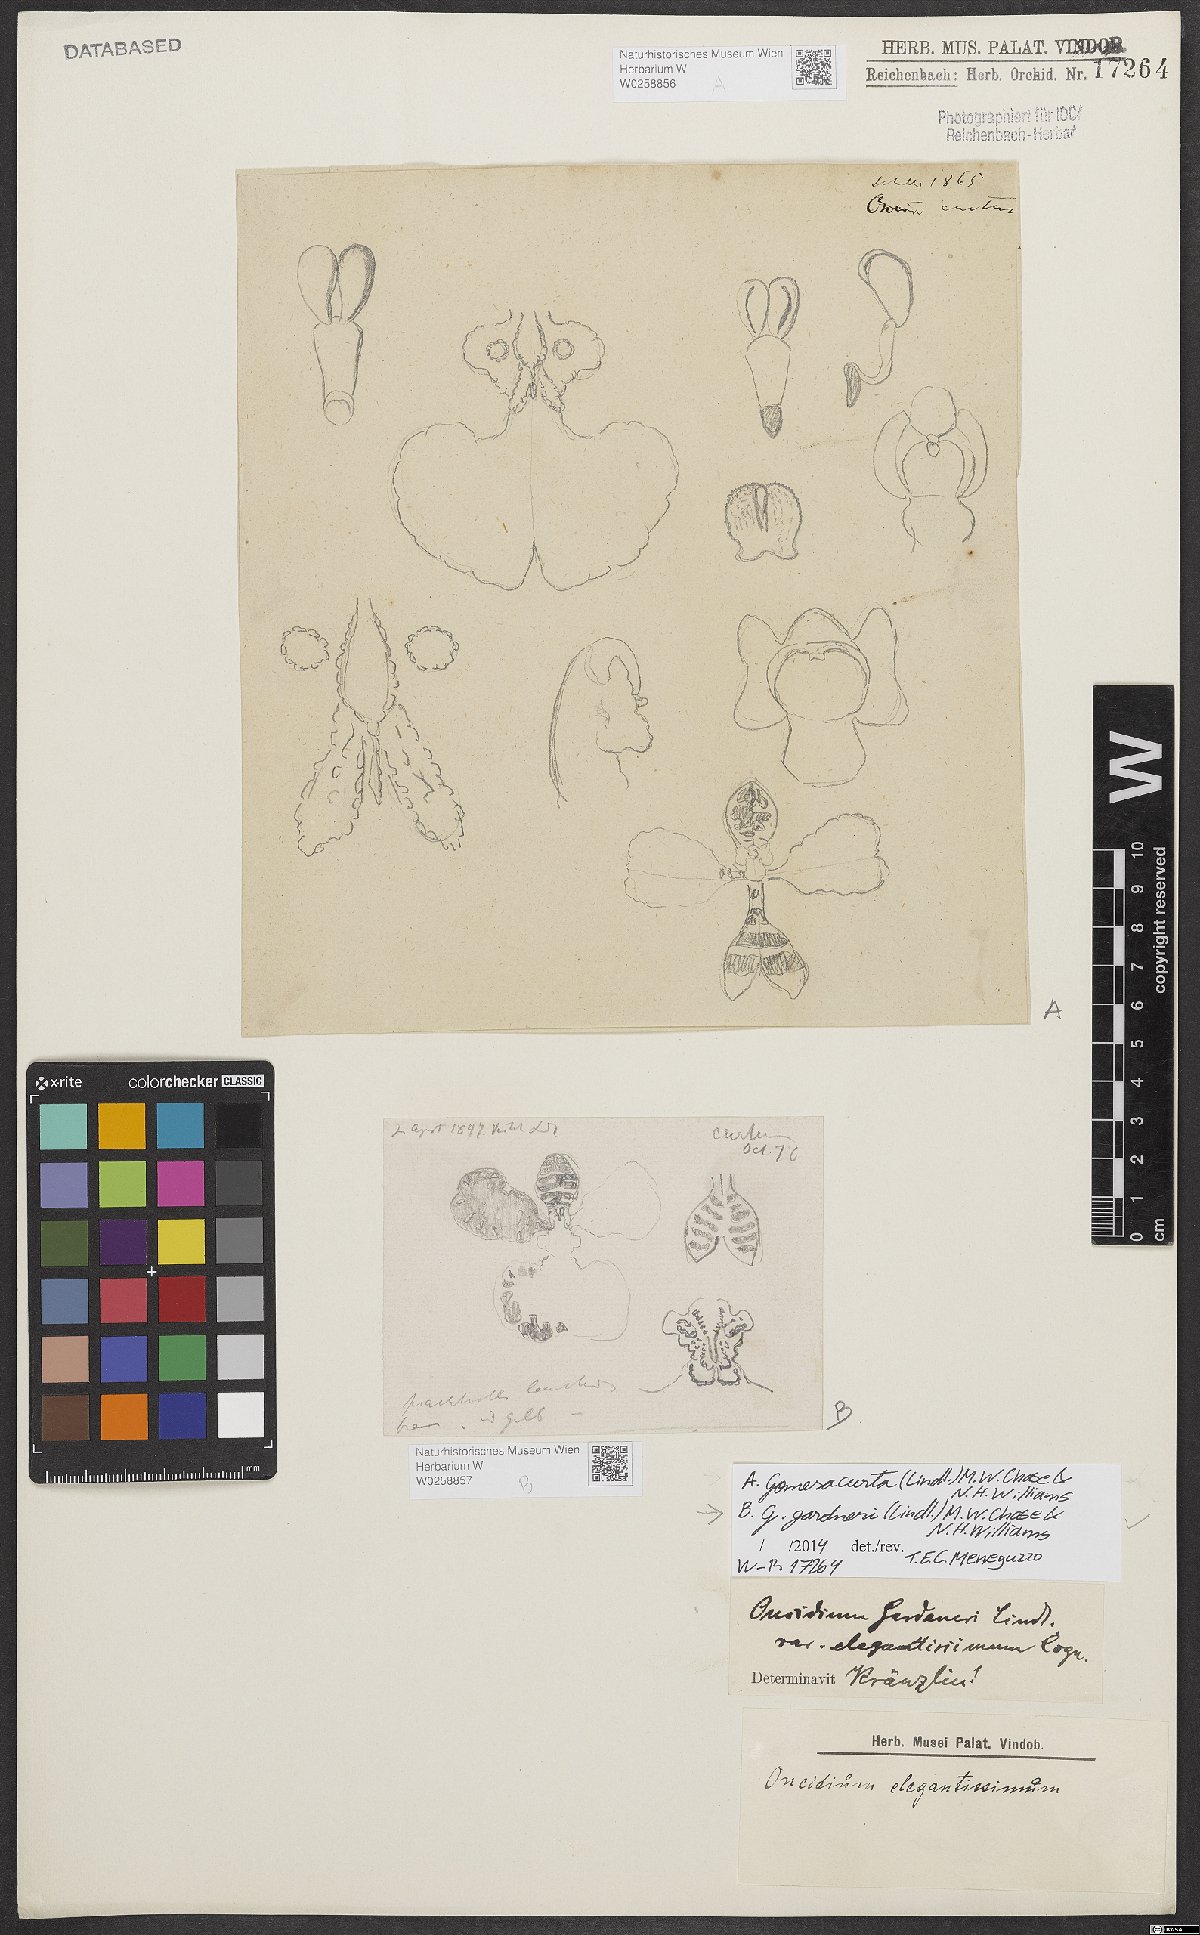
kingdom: Plantae
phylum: Tracheophyta
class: Liliopsida
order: Asparagales
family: Orchidaceae
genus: Gomesa
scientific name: Gomesa gardneri
